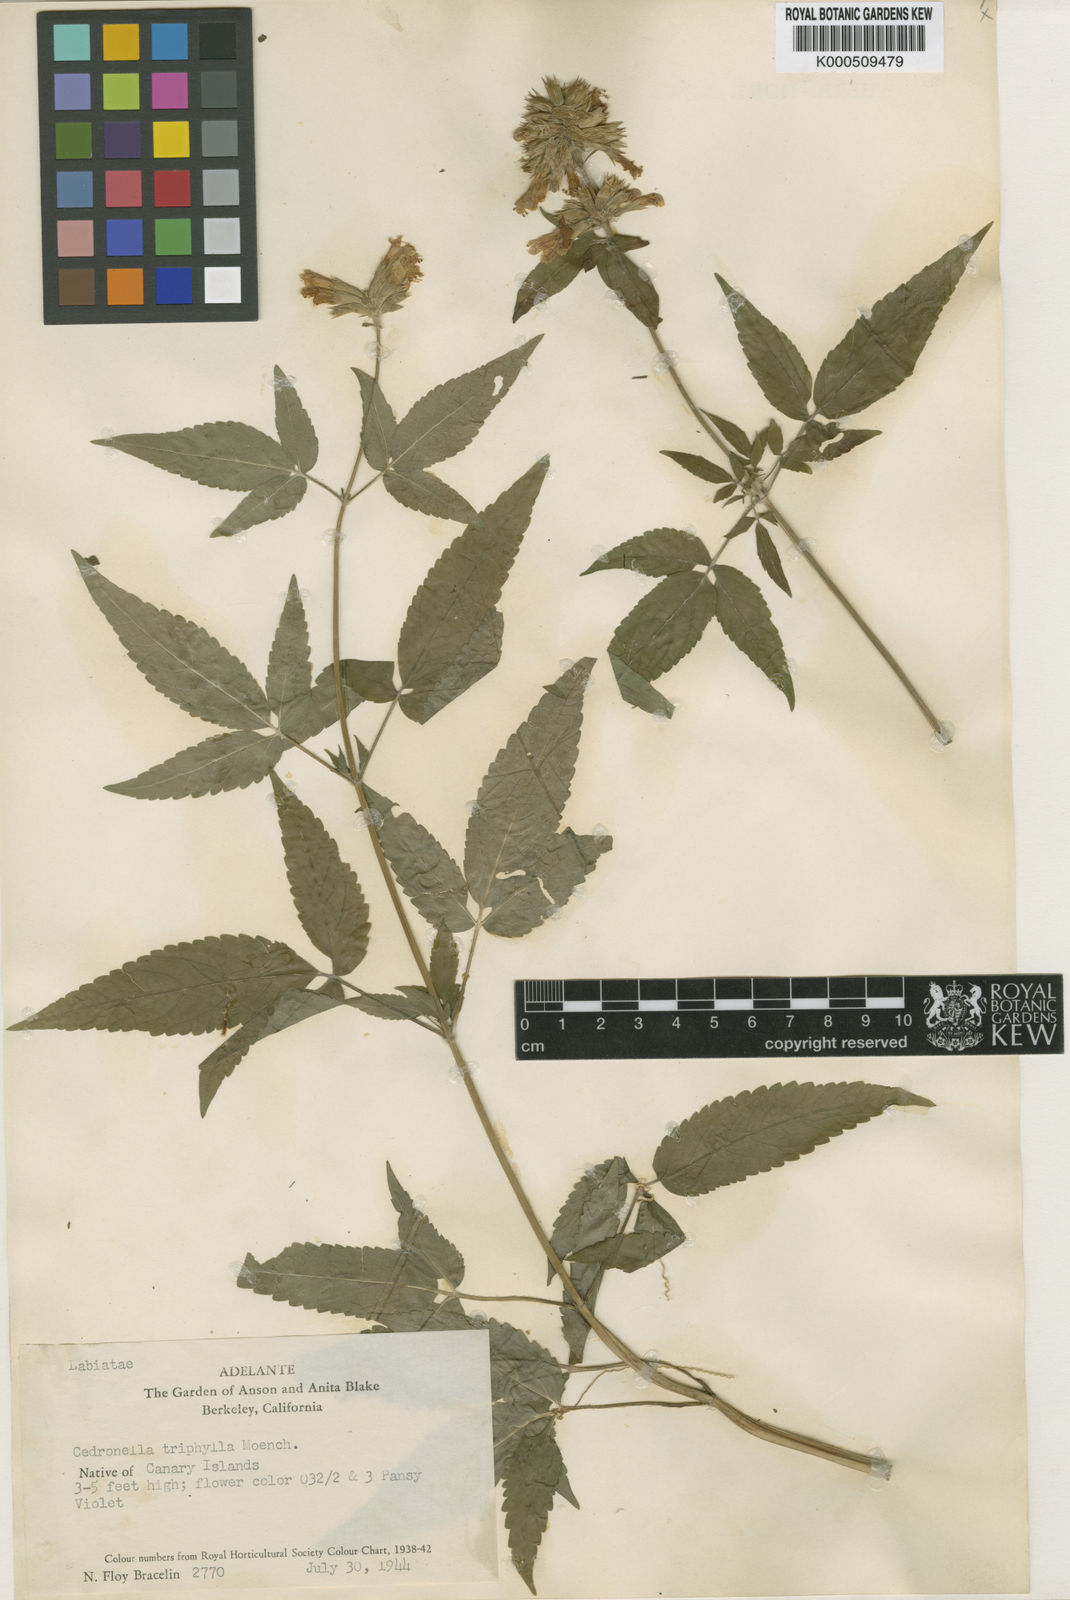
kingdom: Plantae
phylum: Tracheophyta
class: Magnoliopsida
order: Lamiales
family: Lamiaceae
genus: Cedronella
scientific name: Cedronella canariensis
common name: Canary islands balm
